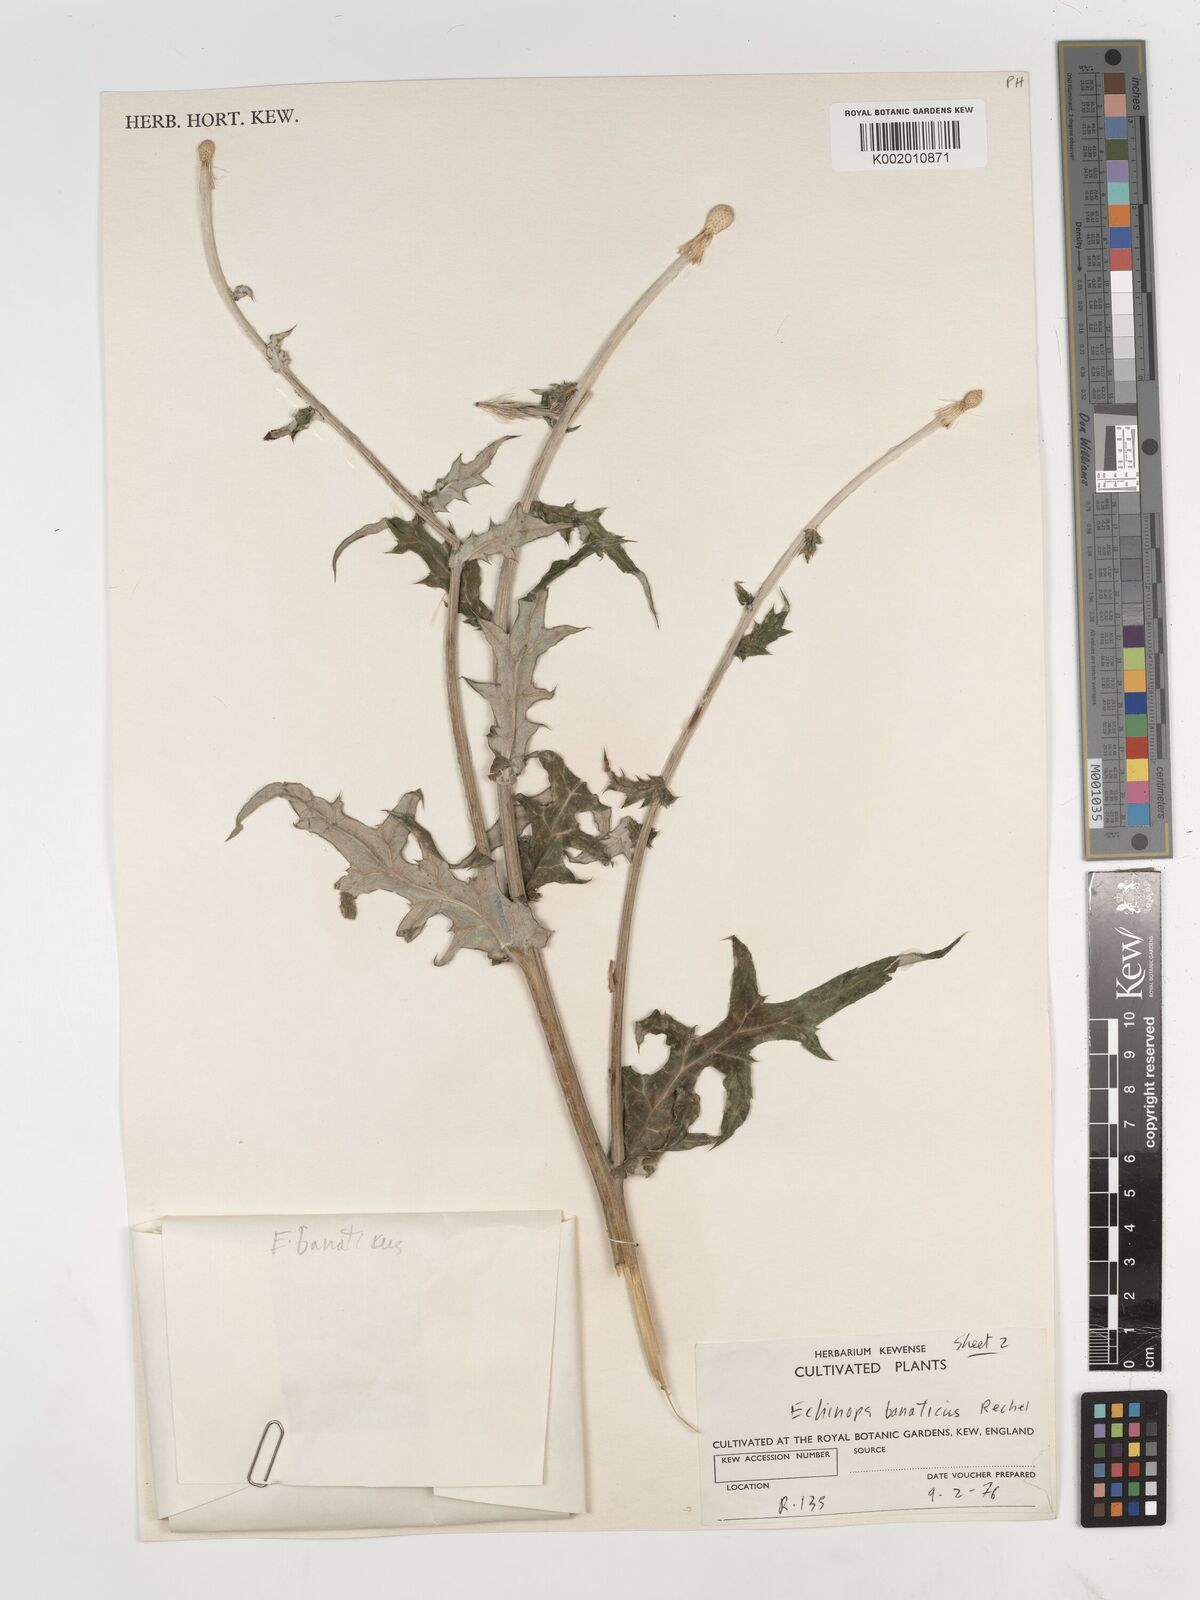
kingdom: Plantae
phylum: Tracheophyta
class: Magnoliopsida
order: Asterales
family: Asteraceae
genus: Echinops
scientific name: Echinops bannaticus
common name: Blue globe-thistle
